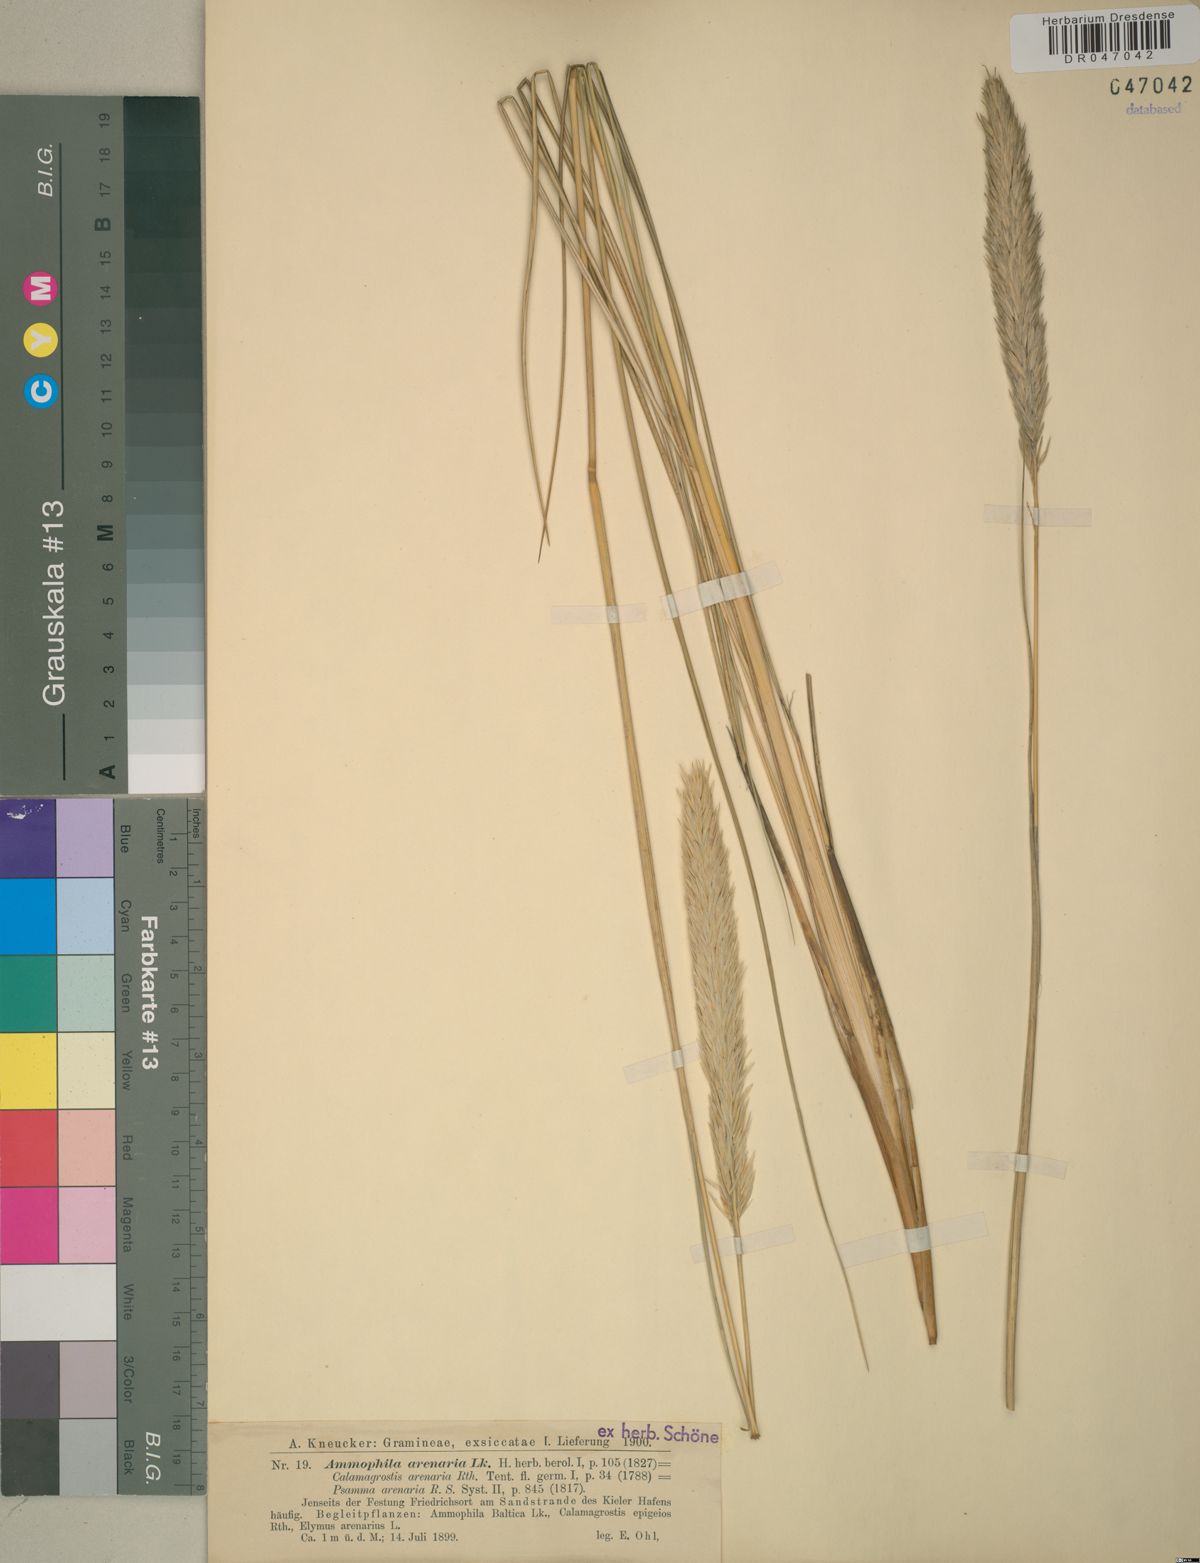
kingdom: Plantae
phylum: Tracheophyta
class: Liliopsida
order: Poales
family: Poaceae
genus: Calamagrostis
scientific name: Calamagrostis arenaria
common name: European beachgrass
